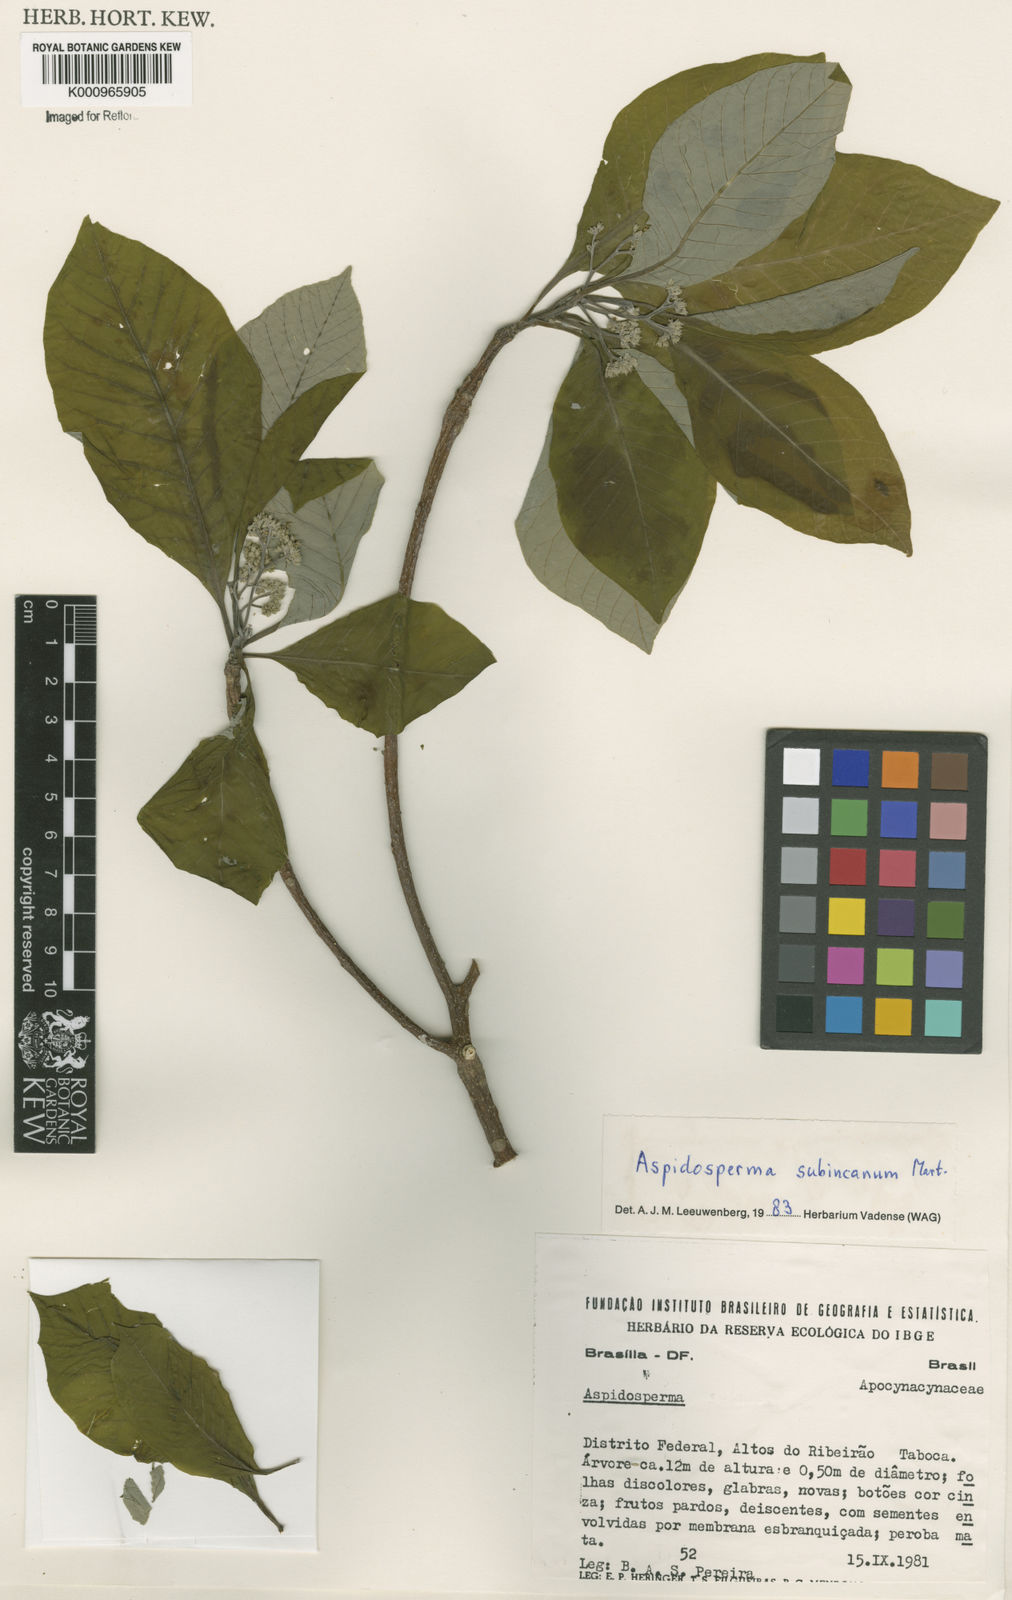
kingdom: Plantae
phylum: Tracheophyta
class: Magnoliopsida
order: Gentianales
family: Apocynaceae
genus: Aspidosperma
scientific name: Aspidosperma subincanum
